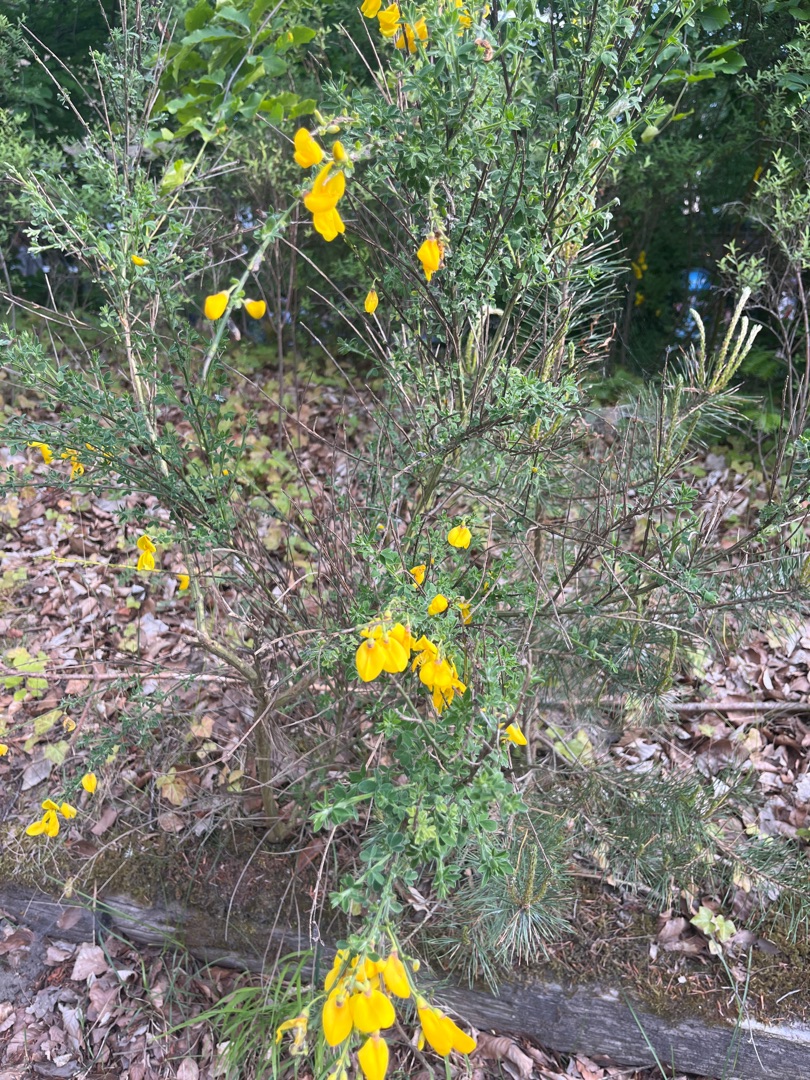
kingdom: Plantae
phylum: Tracheophyta
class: Magnoliopsida
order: Fabales
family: Fabaceae
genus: Cytisus
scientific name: Cytisus scoparius
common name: Almindelig gyvel
